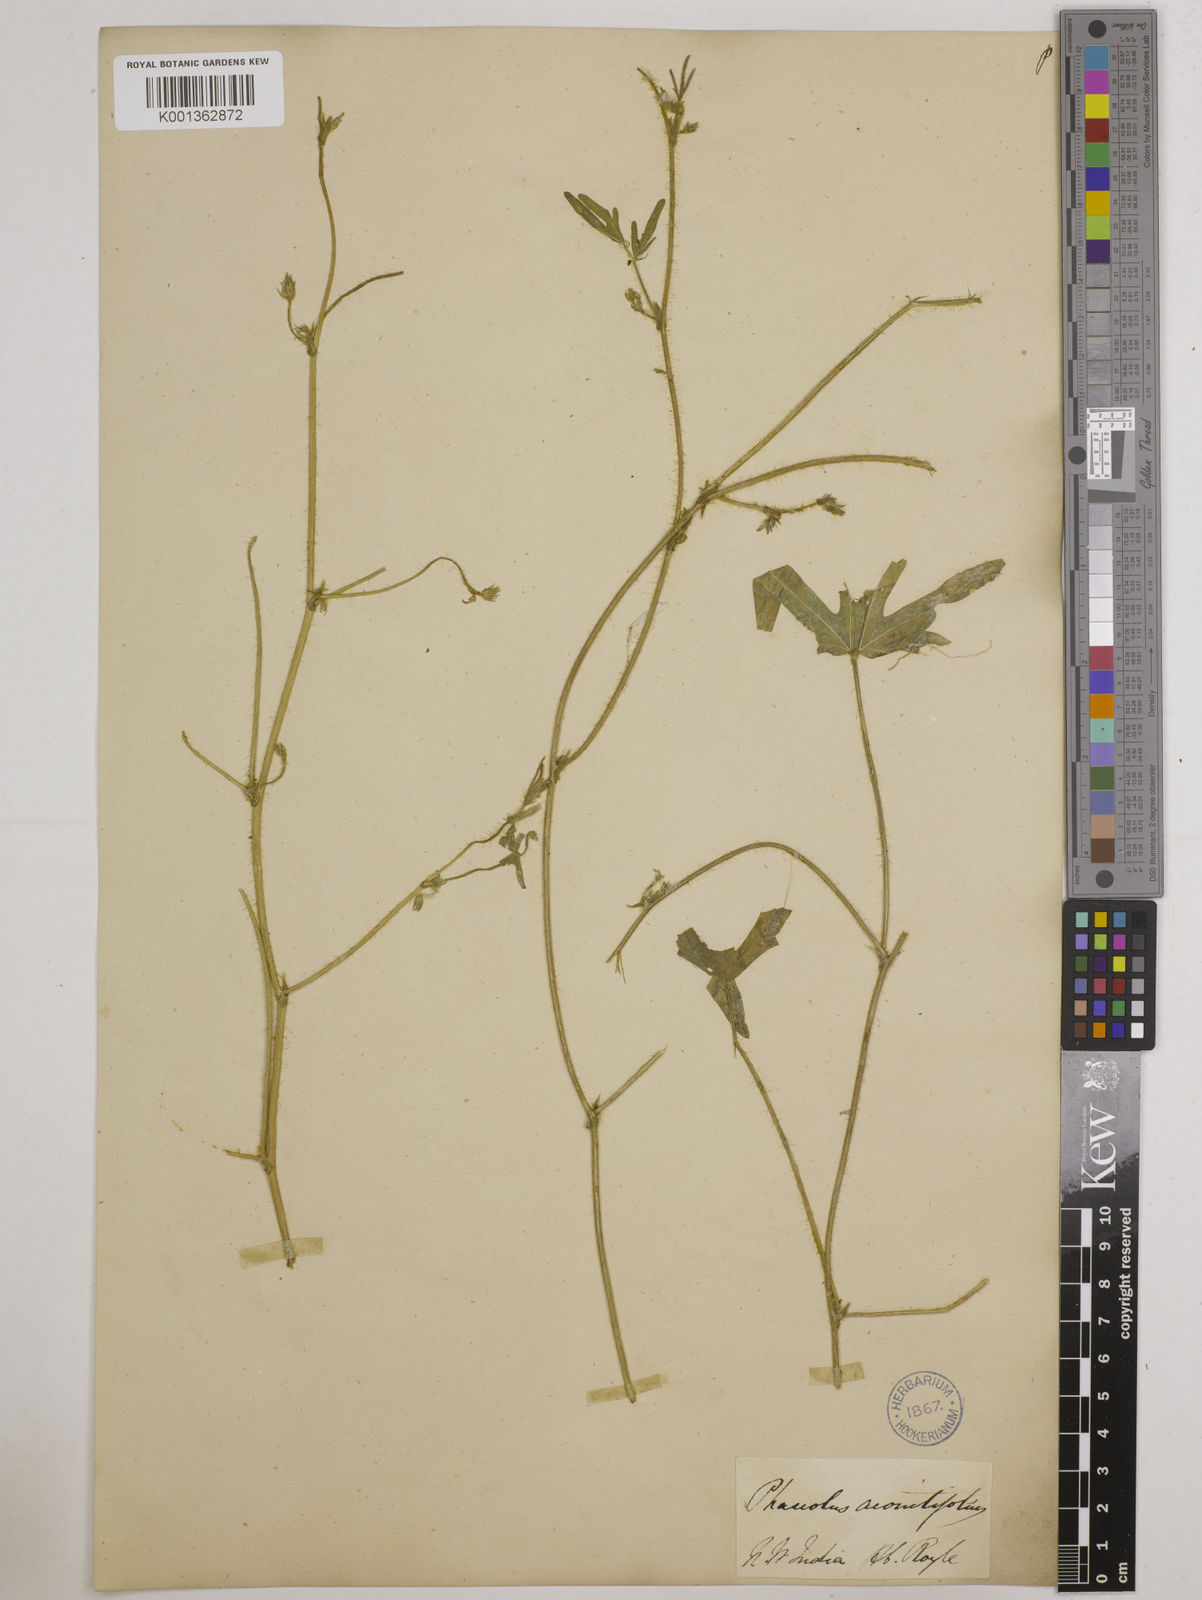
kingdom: Plantae
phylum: Tracheophyta
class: Magnoliopsida
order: Fabales
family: Fabaceae
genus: Vigna
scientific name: Vigna aconitifolia
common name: Dew bean
